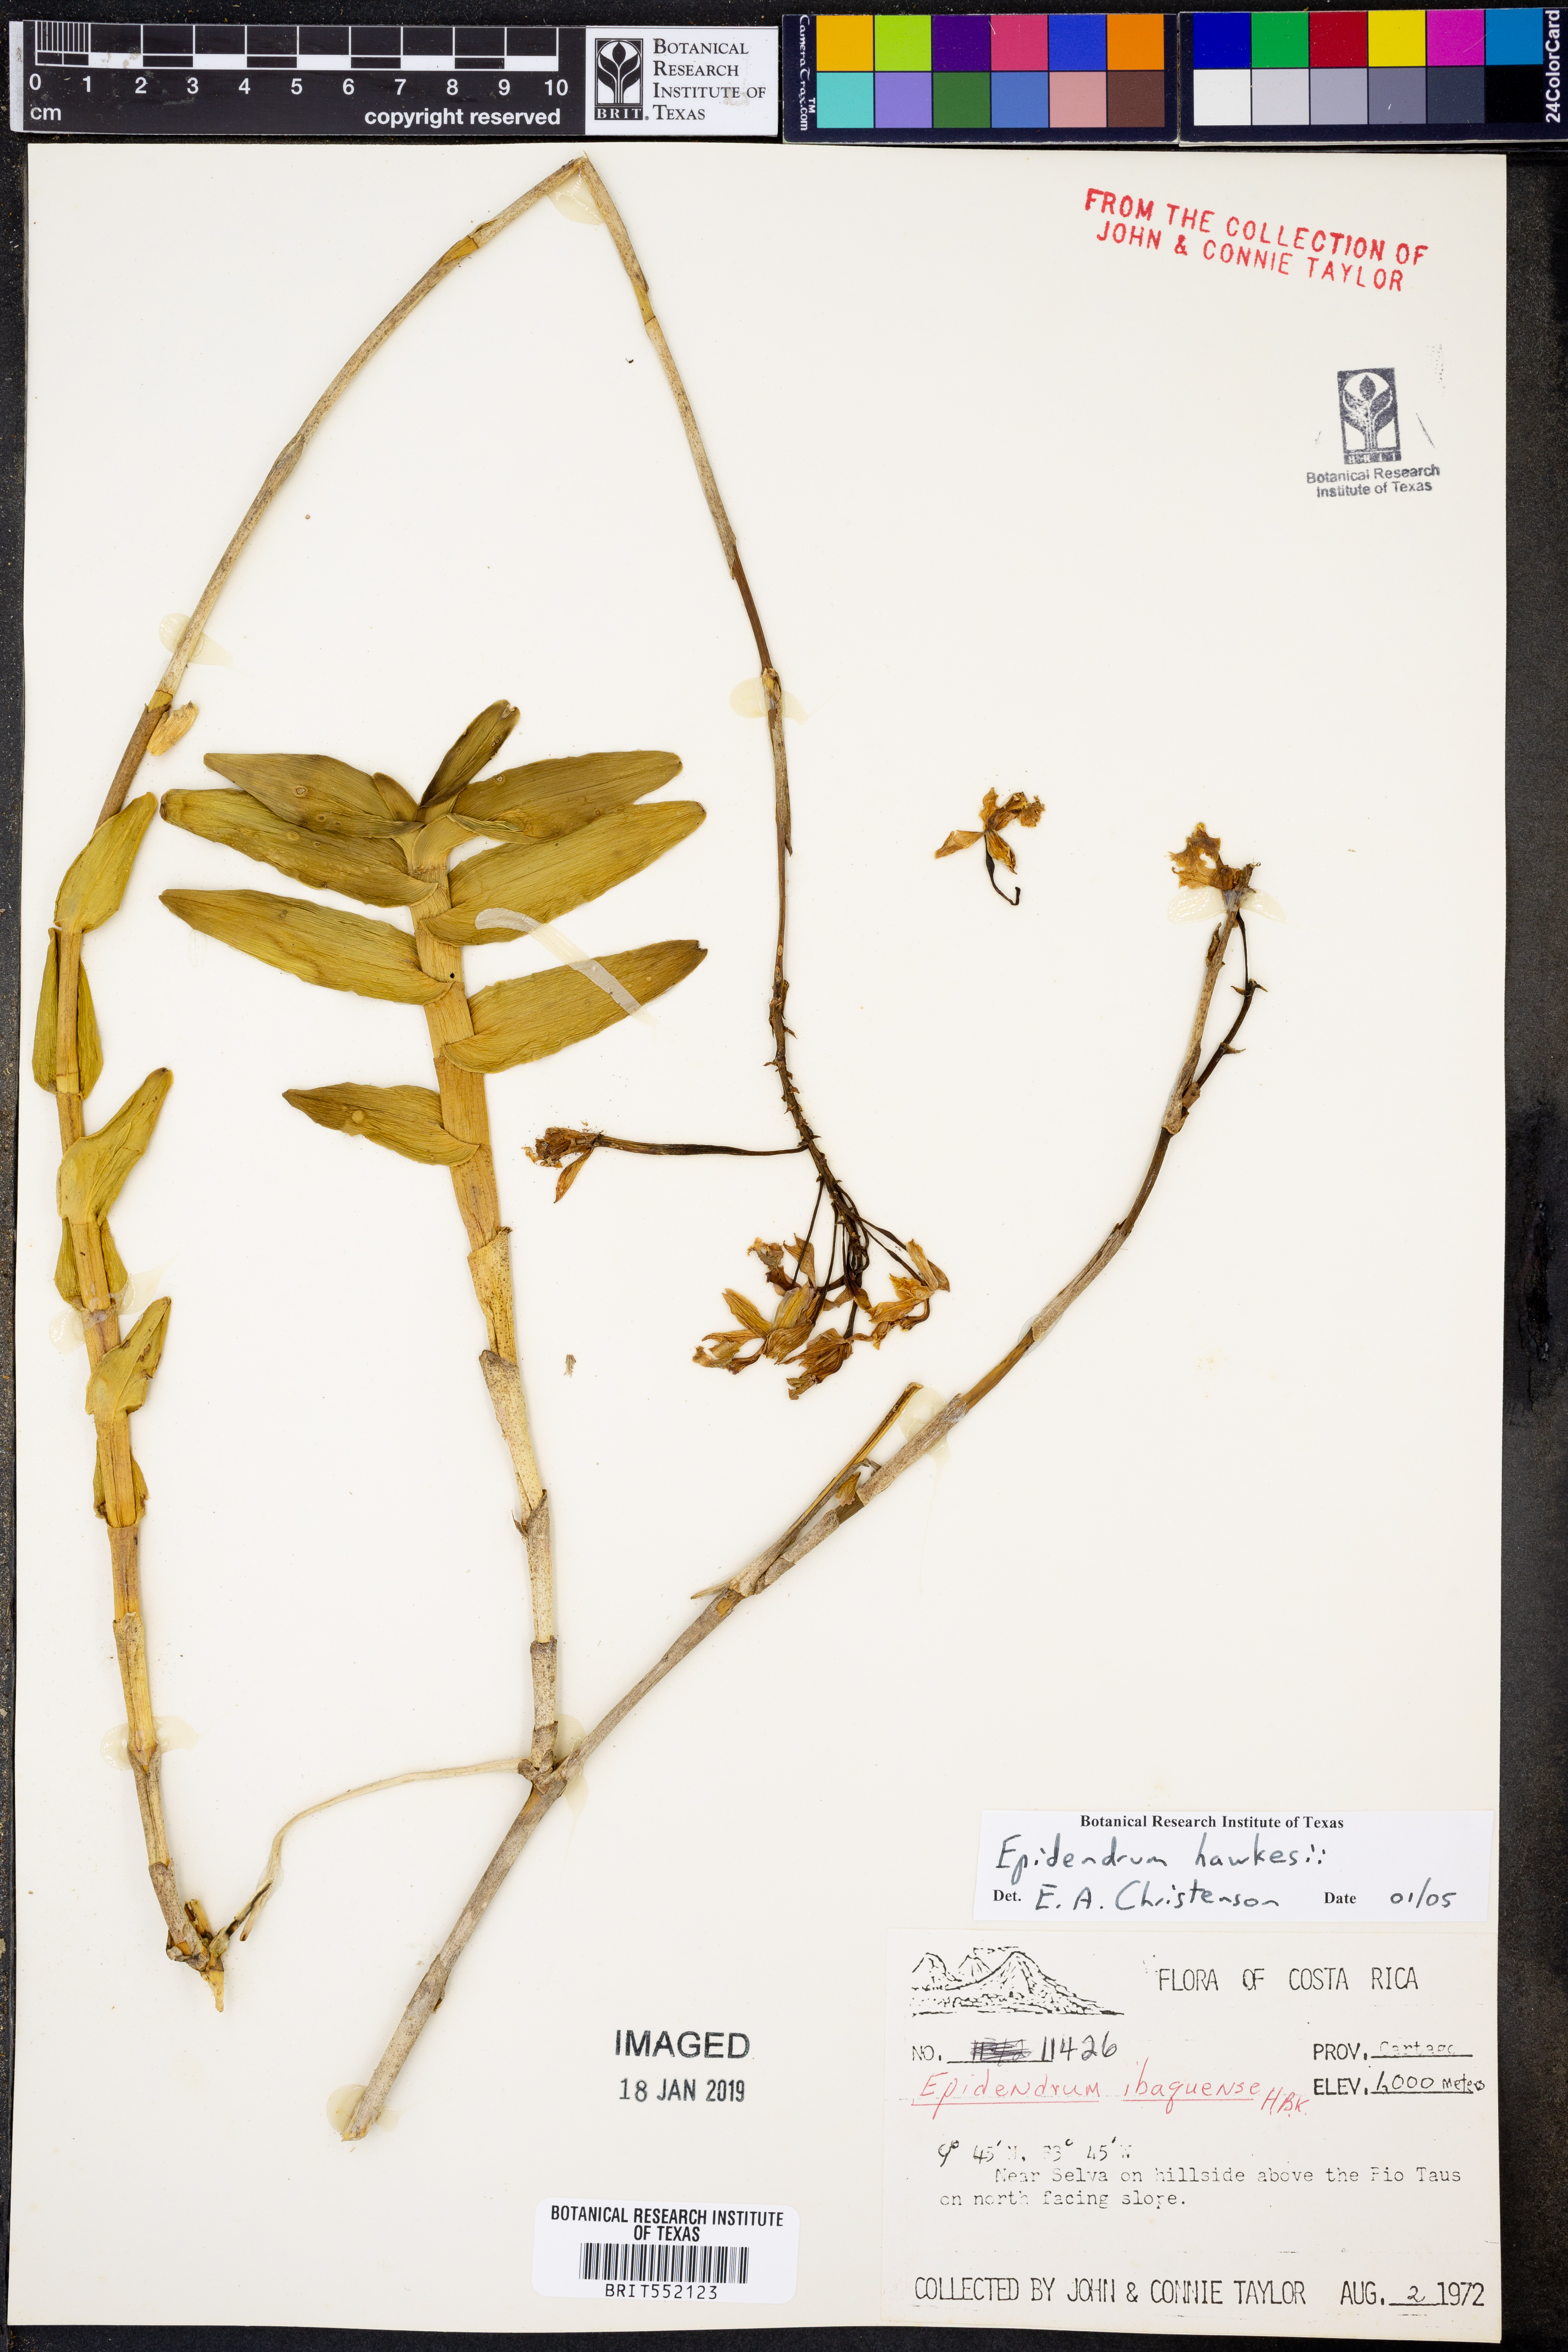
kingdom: Plantae
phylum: Tracheophyta
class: Liliopsida
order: Asparagales
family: Orchidaceae
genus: Epidendrum
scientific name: Epidendrum hawkesii
